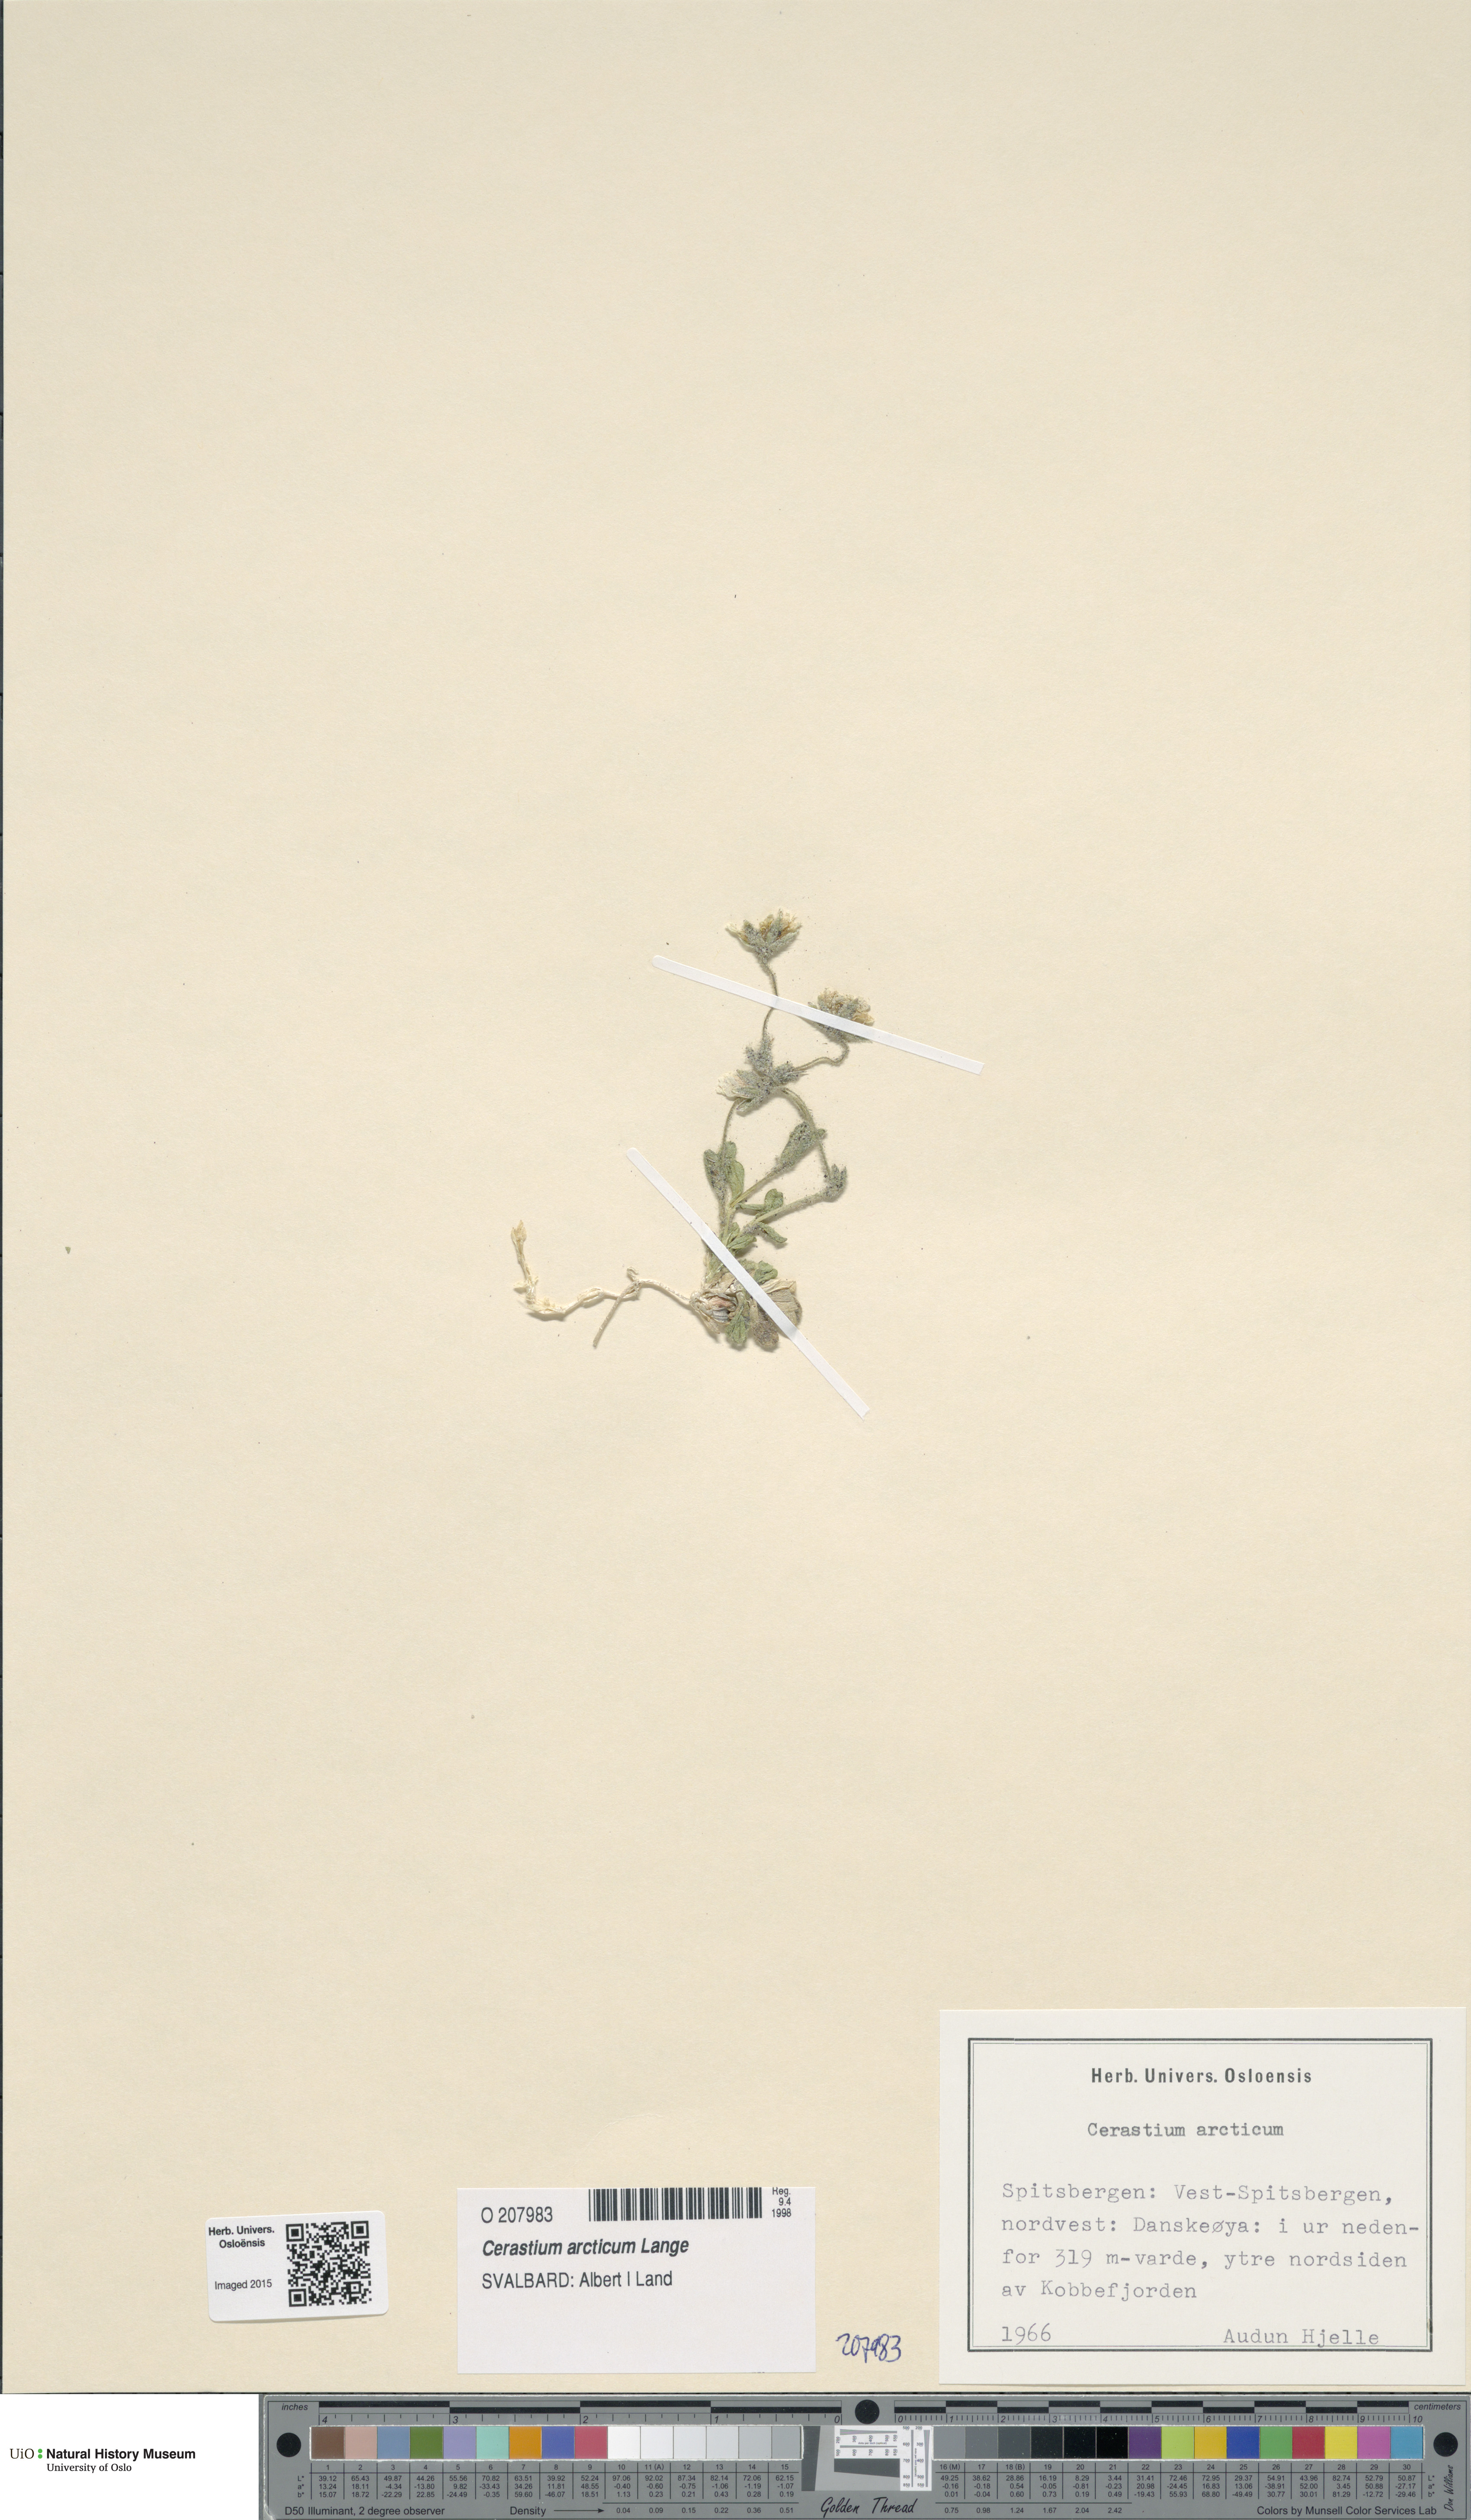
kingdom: Plantae
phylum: Tracheophyta
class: Magnoliopsida
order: Caryophyllales
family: Caryophyllaceae
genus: Cerastium
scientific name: Cerastium arcticum
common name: Arctic mouse-ear
